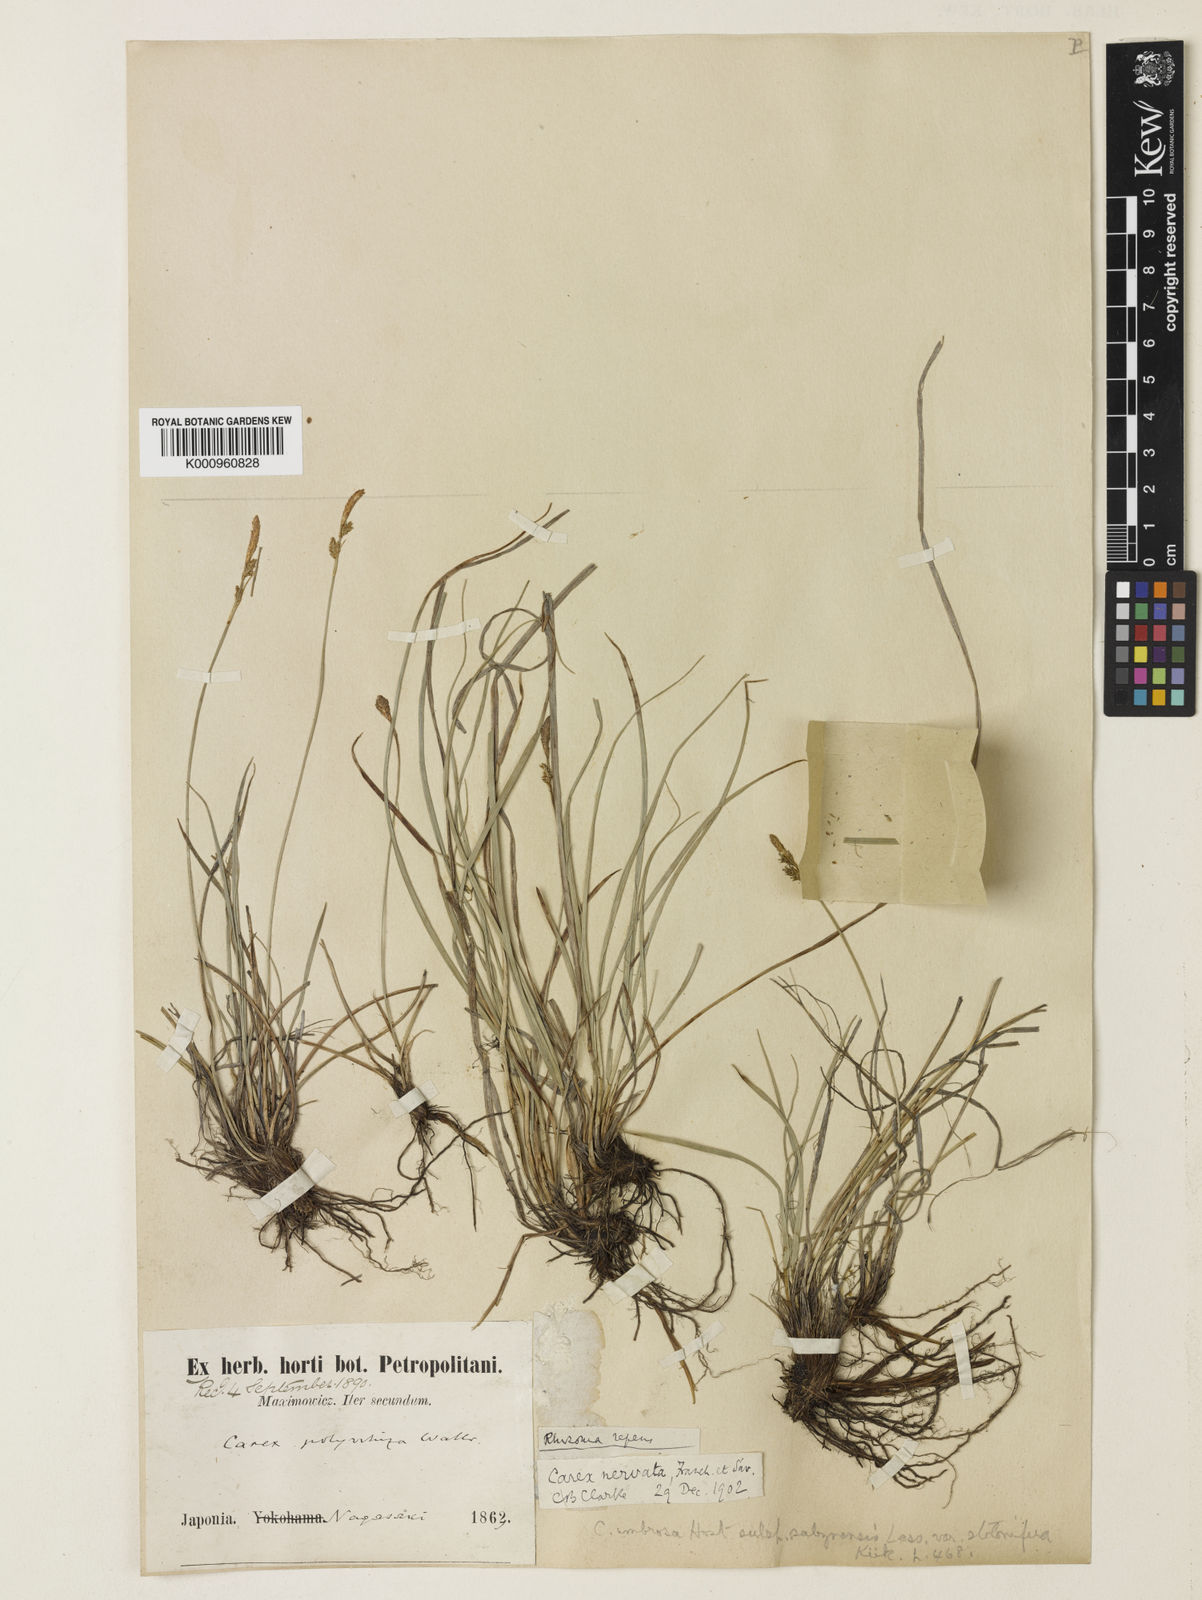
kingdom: Plantae
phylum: Tracheophyta
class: Liliopsida
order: Poales
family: Cyperaceae
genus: Carex
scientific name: Carex umbrosa
